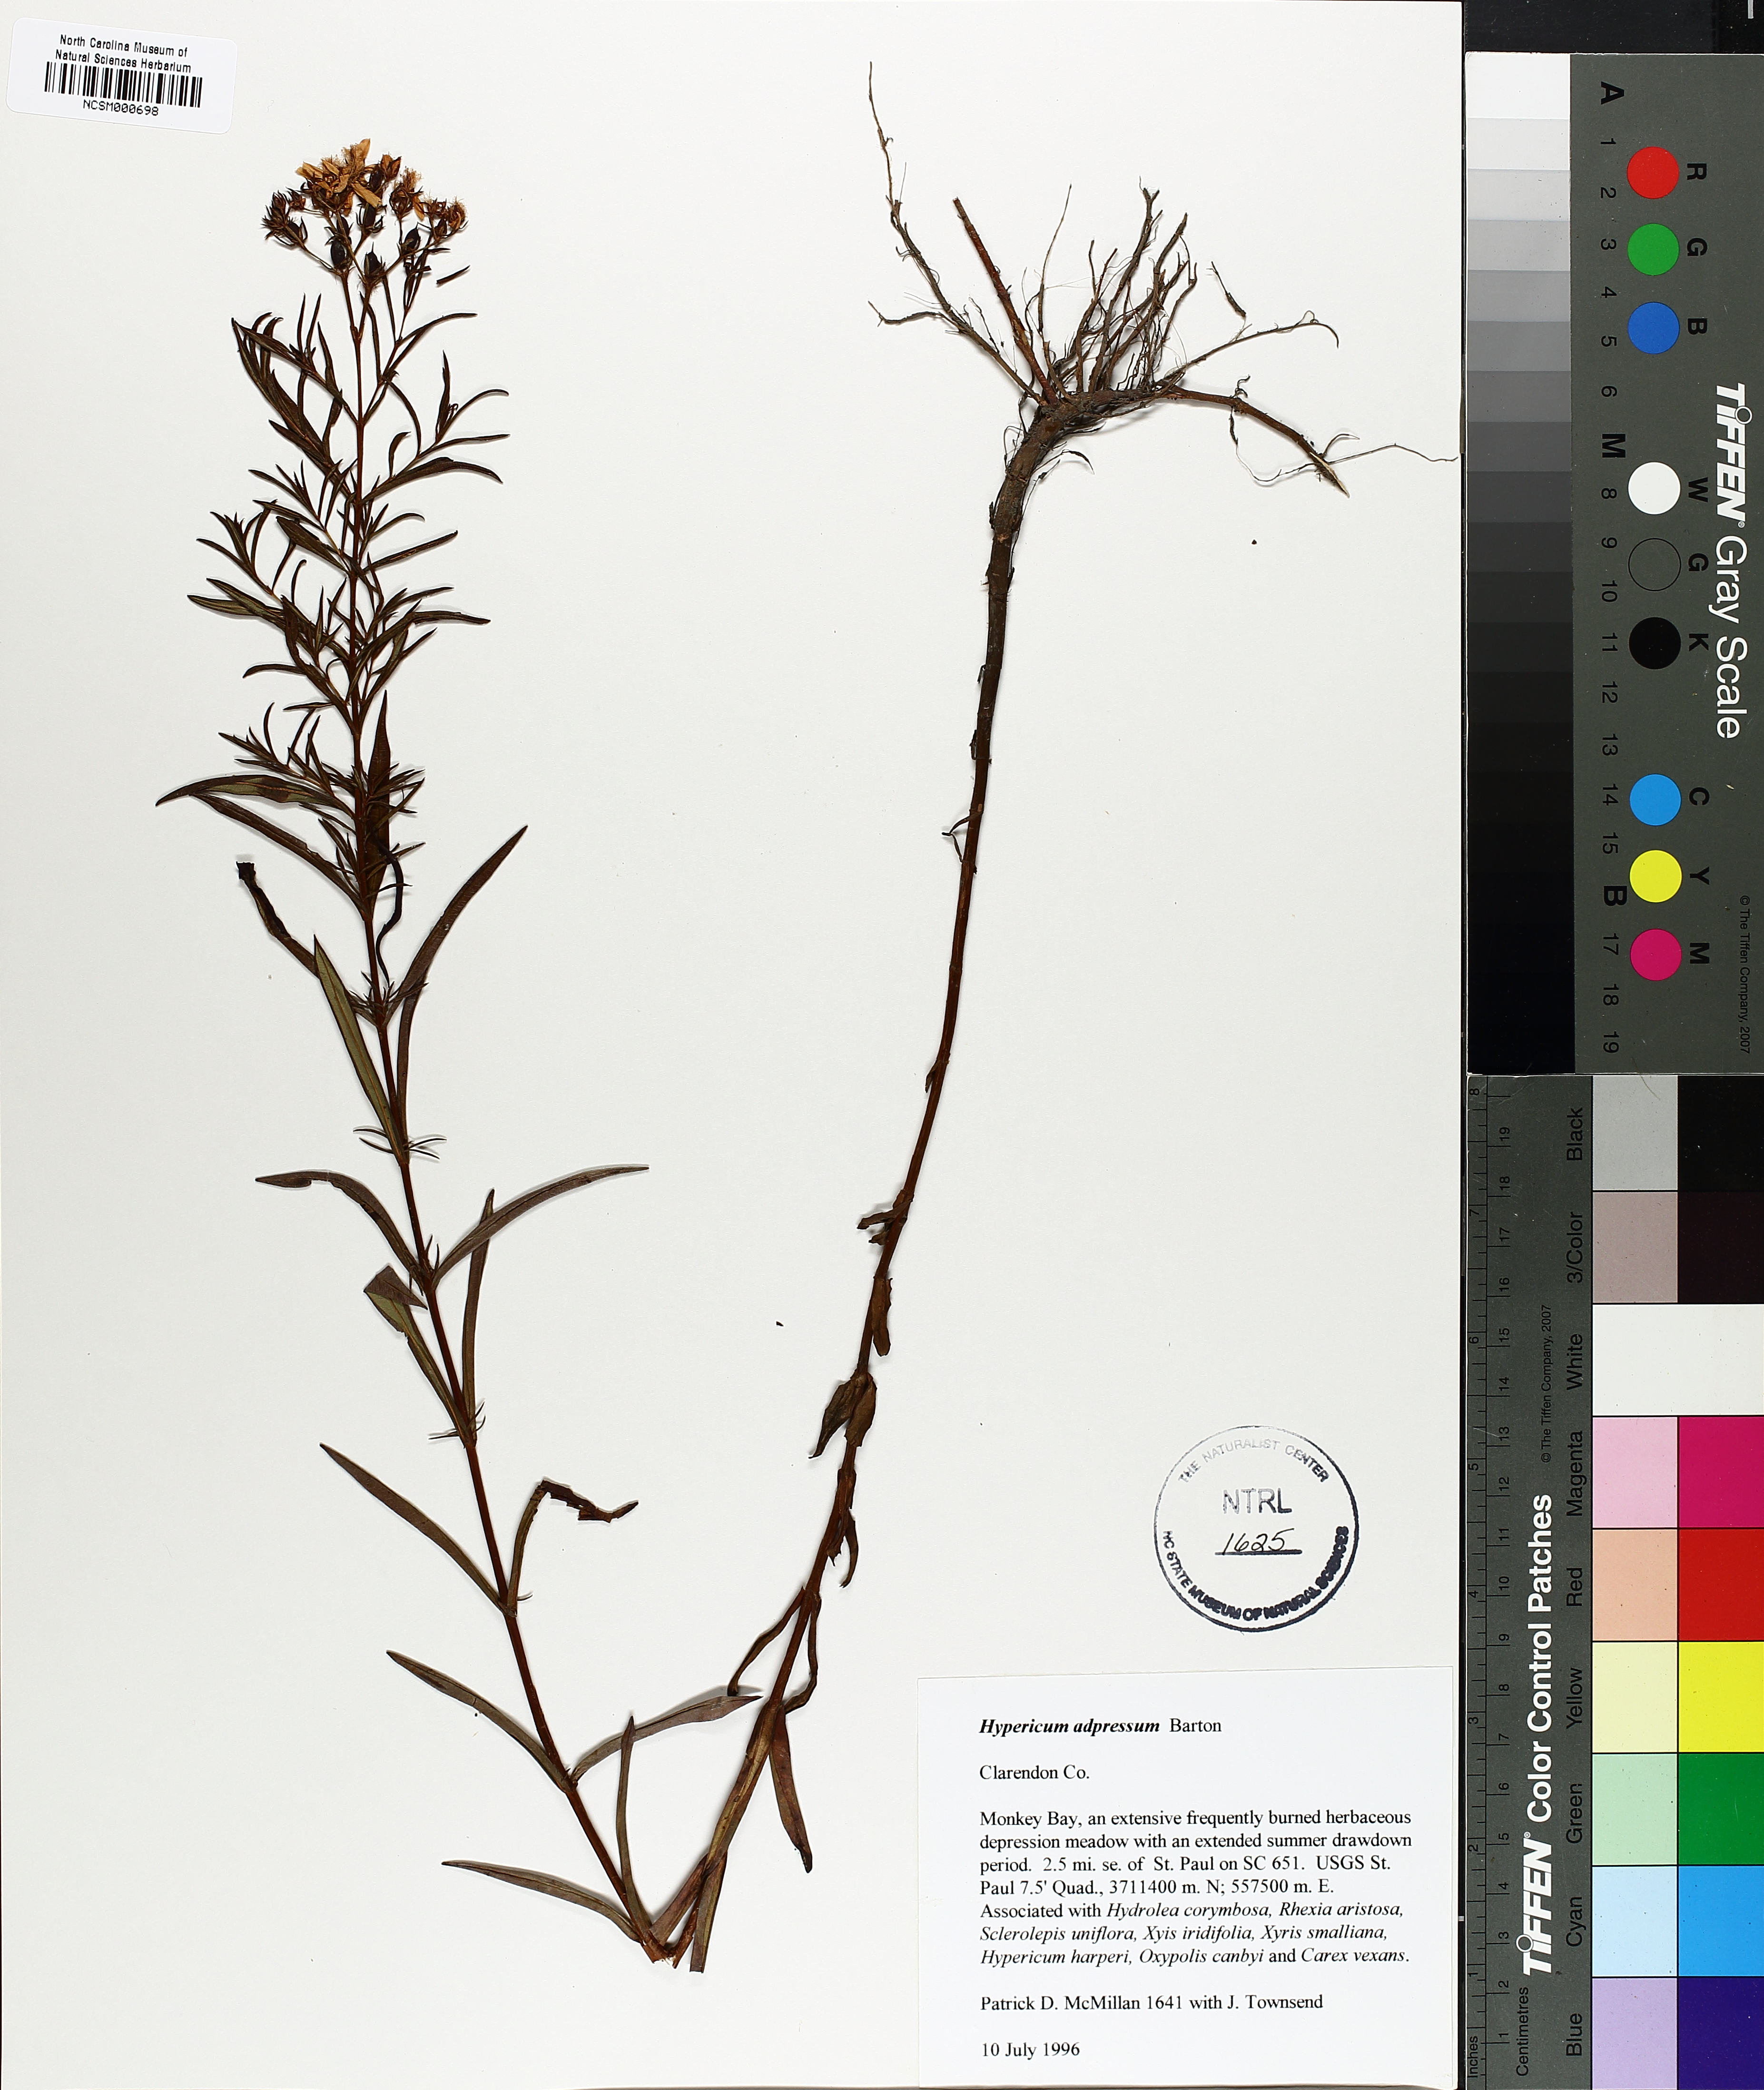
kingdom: Plantae
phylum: Tracheophyta
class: Magnoliopsida
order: Malpighiales
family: Hypericaceae
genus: Hypericum
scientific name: Hypericum adpressum
